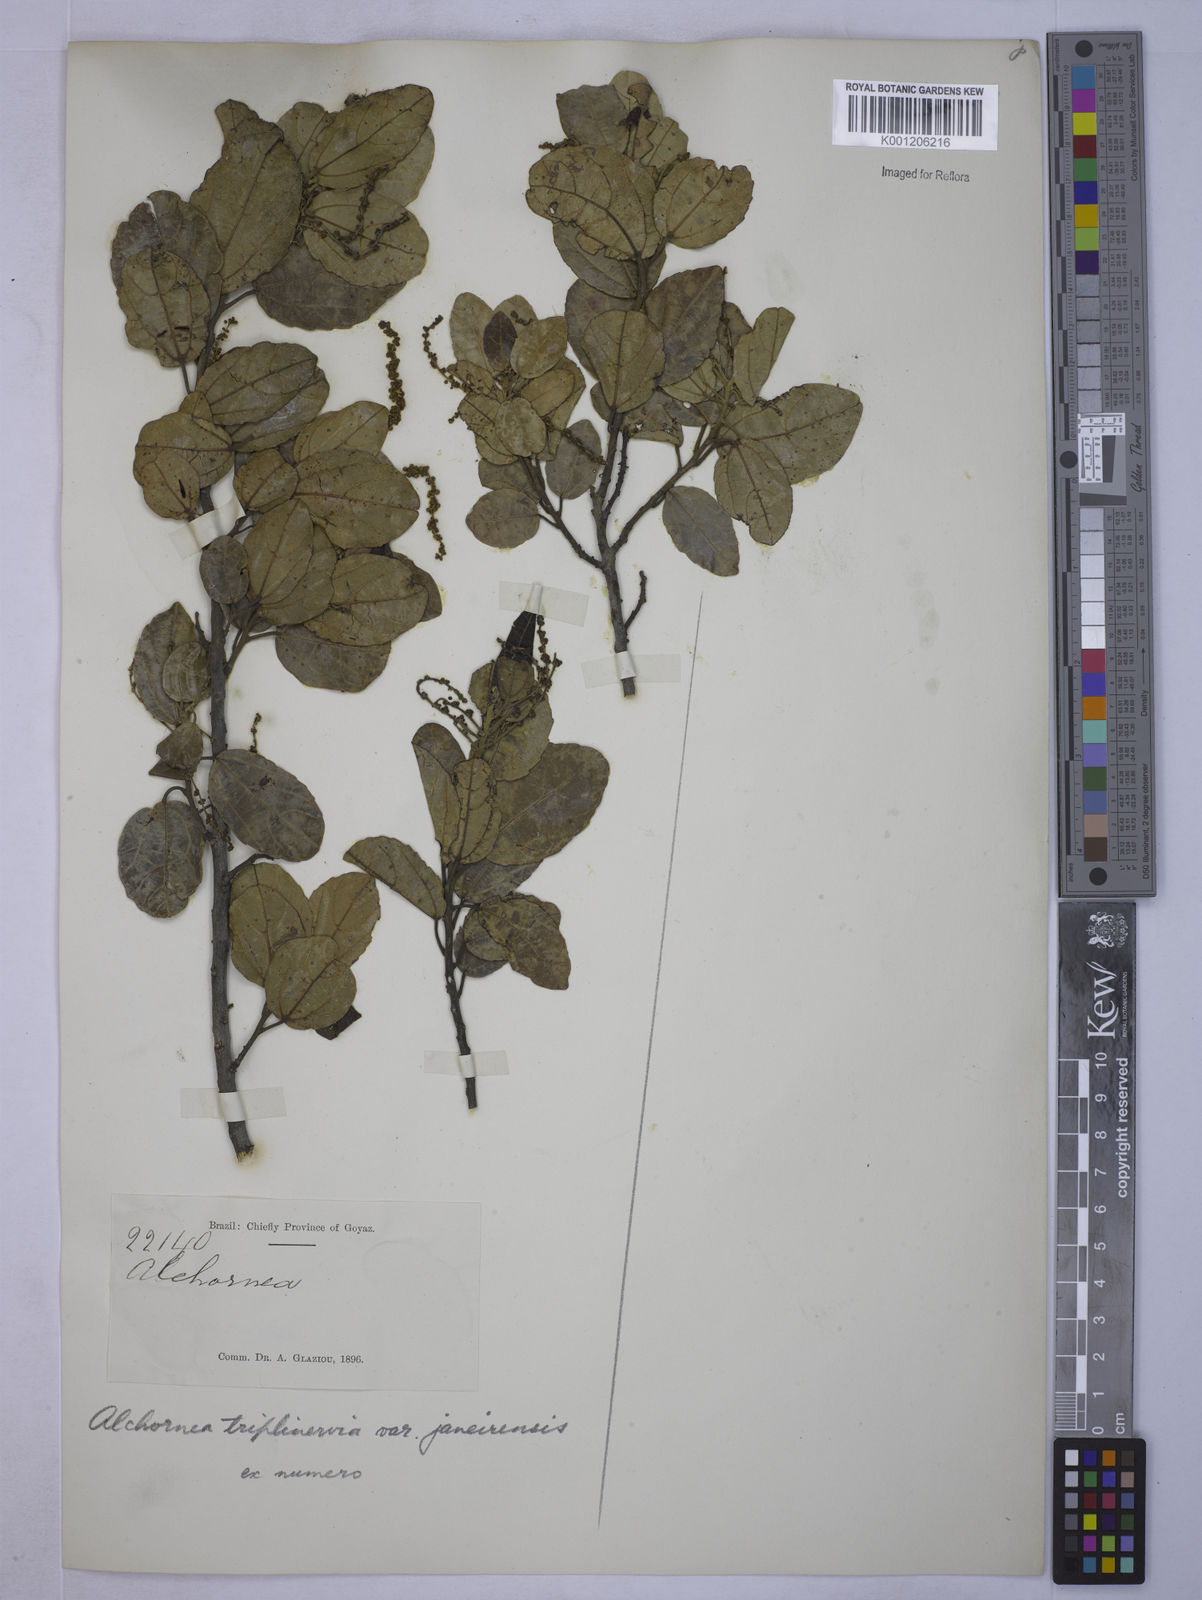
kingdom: Plantae
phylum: Tracheophyta
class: Magnoliopsida
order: Malpighiales
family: Euphorbiaceae
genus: Alchornea
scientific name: Alchornea
